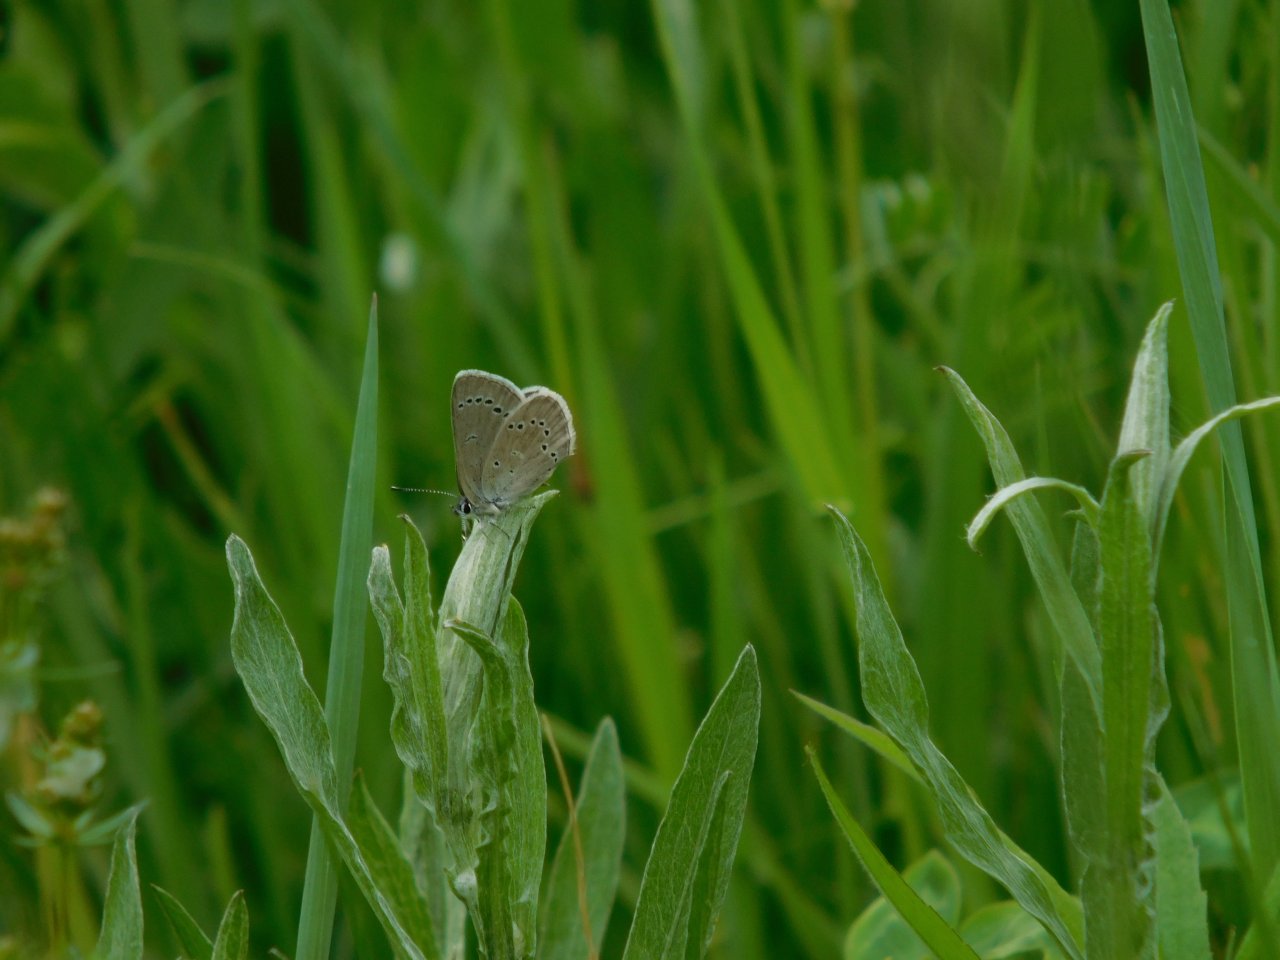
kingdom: Animalia
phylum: Arthropoda
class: Insecta
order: Lepidoptera
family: Lycaenidae
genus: Glaucopsyche
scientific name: Glaucopsyche lygdamus
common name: Silvery Blue
